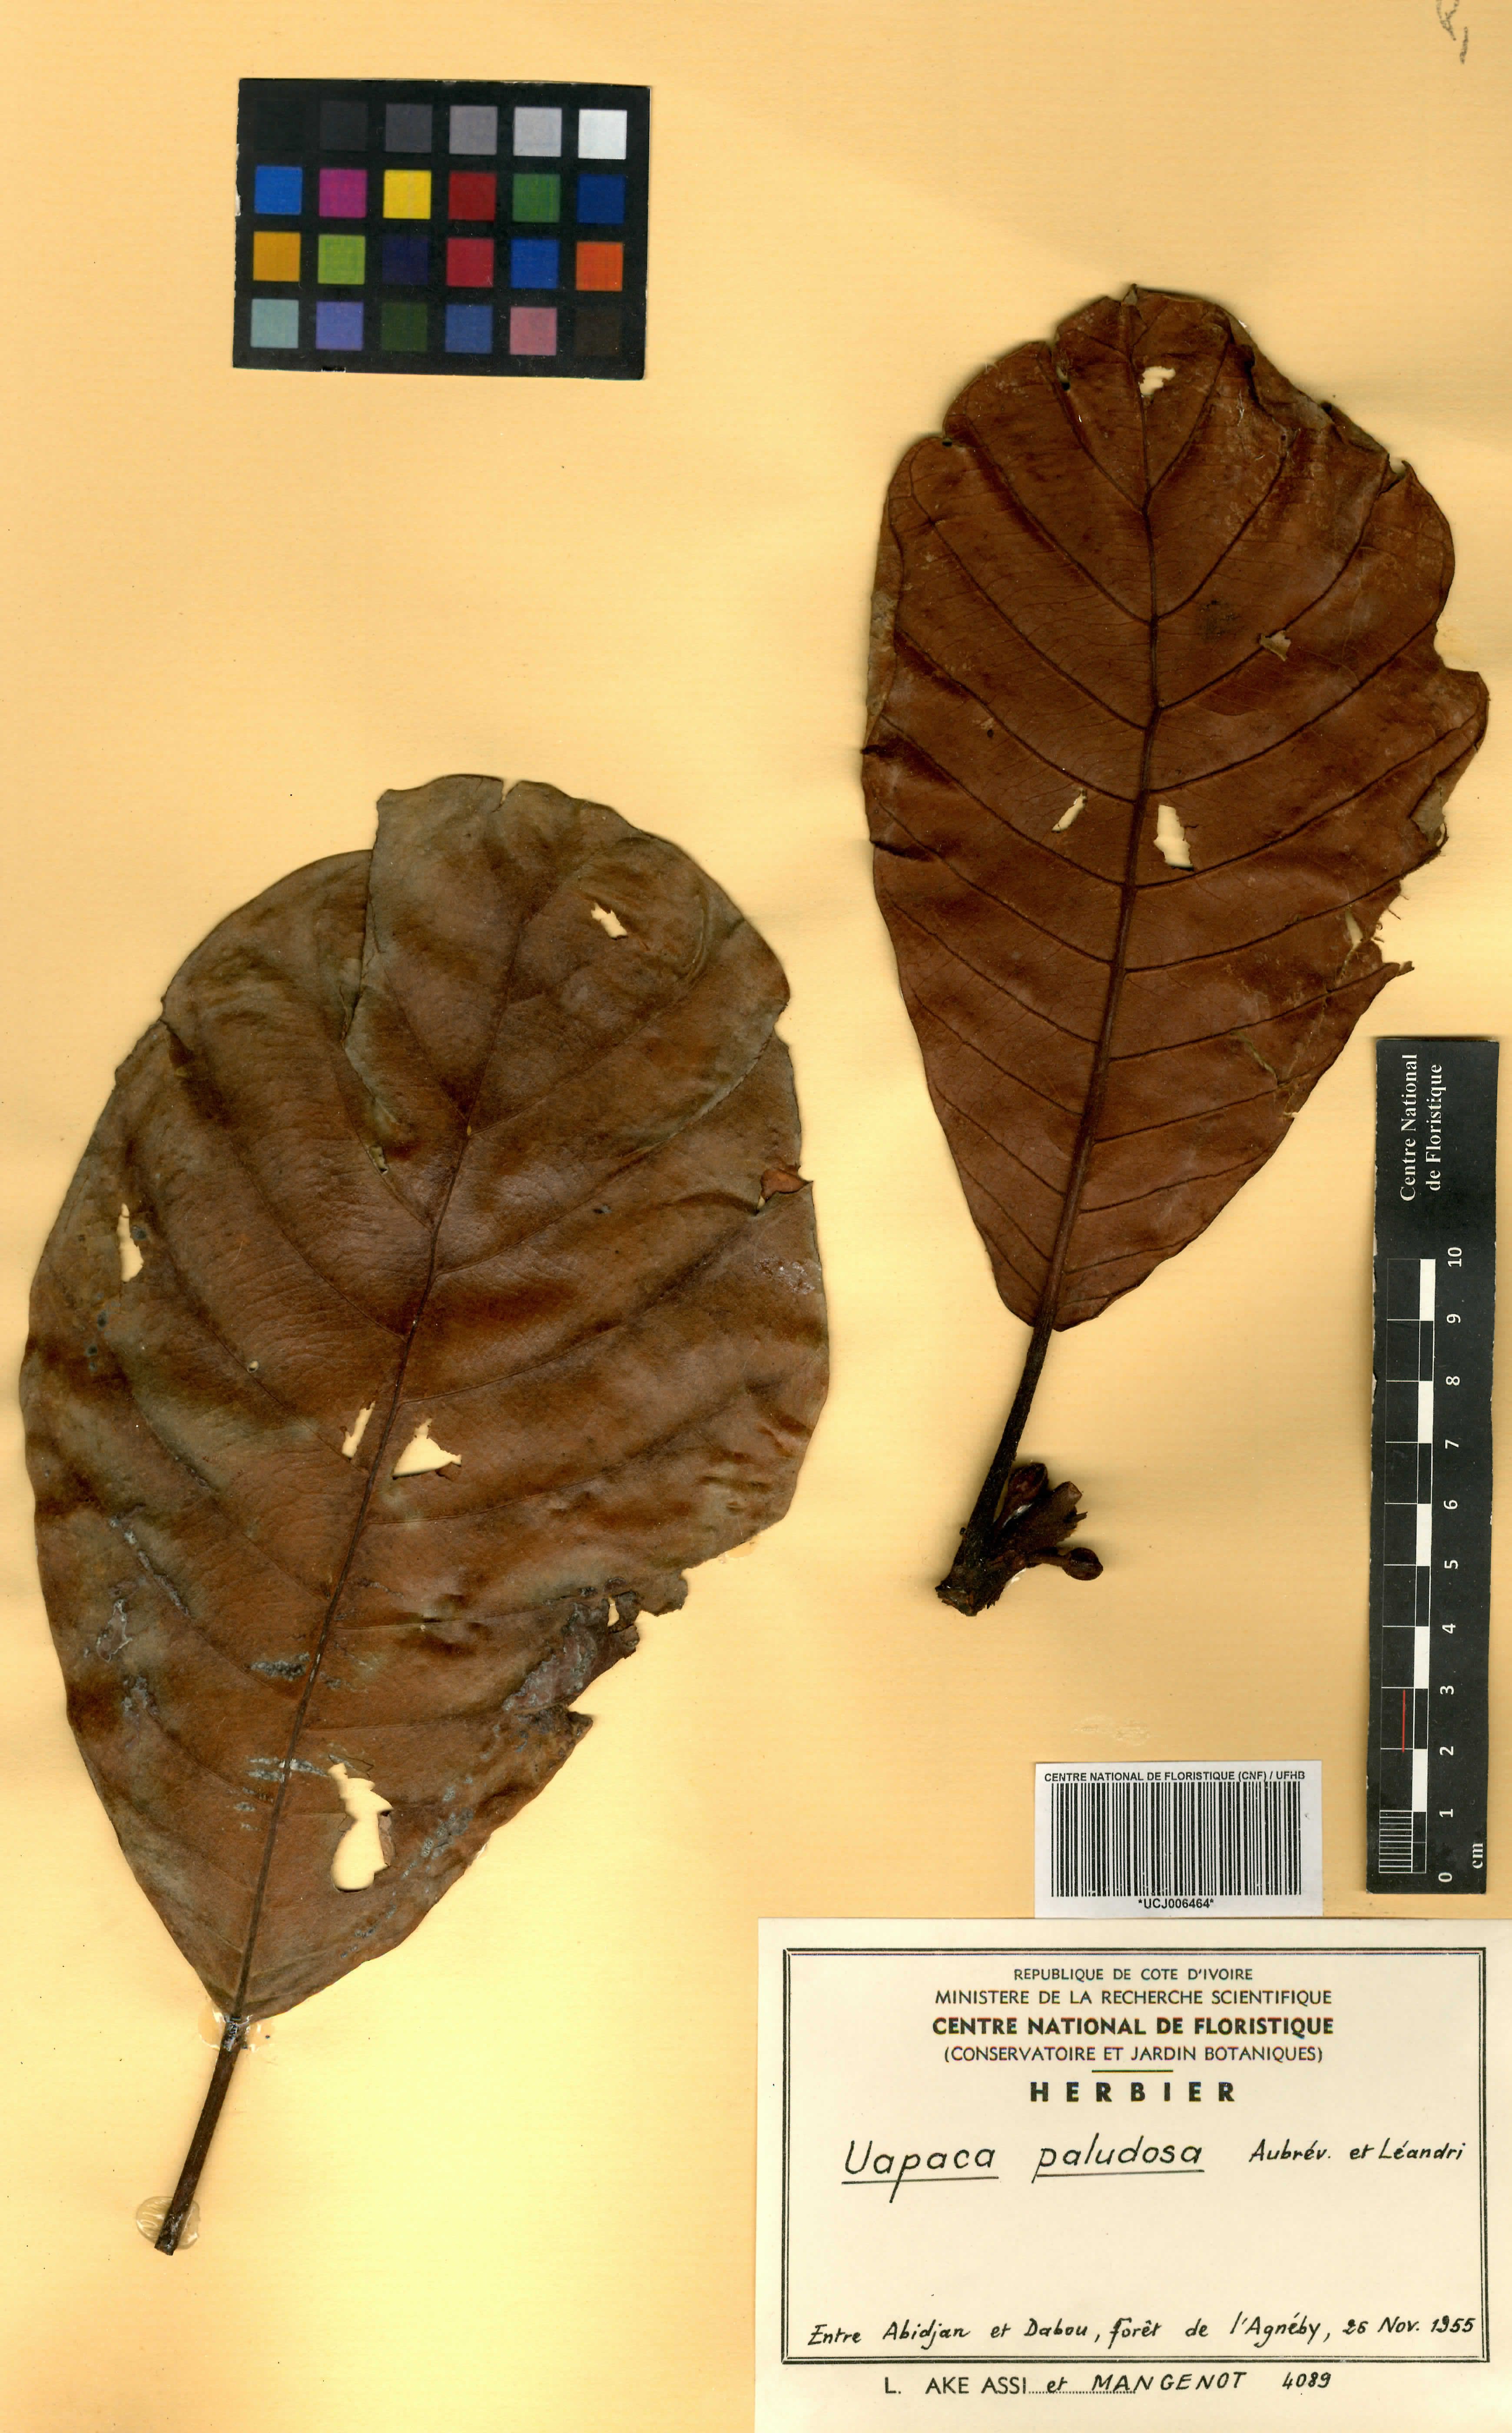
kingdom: Plantae
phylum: Tracheophyta
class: Magnoliopsida
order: Malpighiales
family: Phyllanthaceae
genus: Uapaca
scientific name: Uapaca mole
